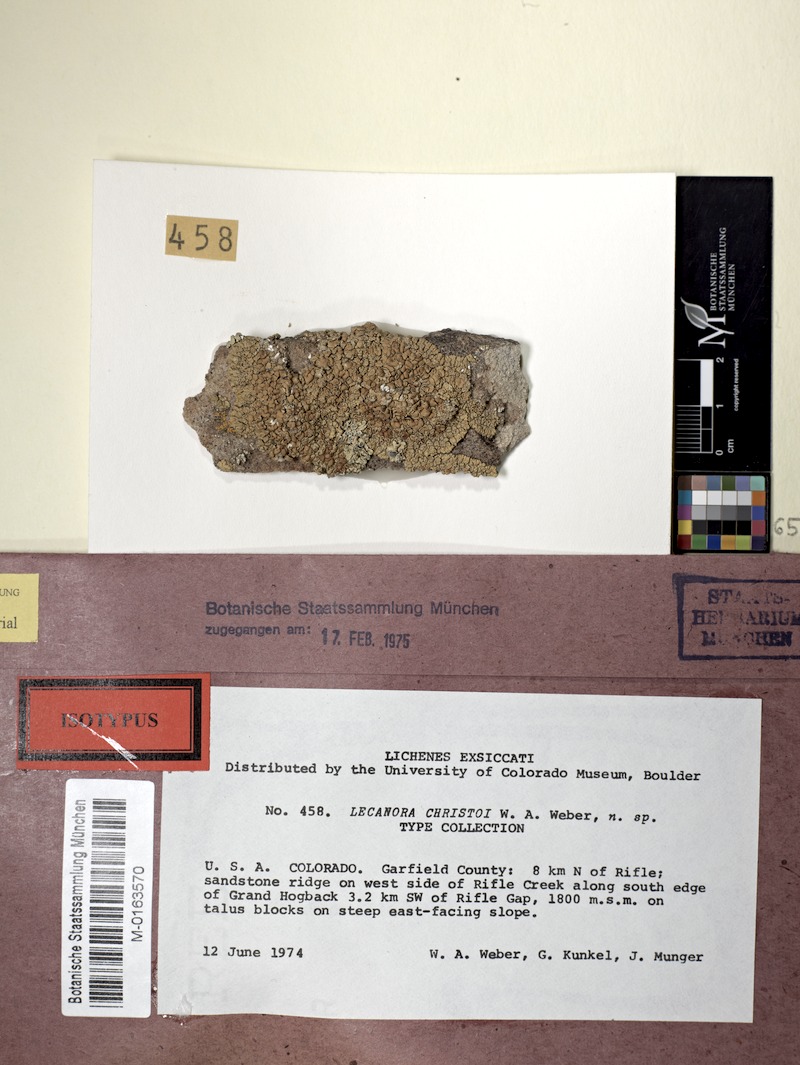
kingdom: Fungi
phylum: Ascomycota
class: Lecanoromycetes
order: Lecanorales
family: Lecanoraceae
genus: Omphalodina
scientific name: Omphalodina phaedrophthalma
